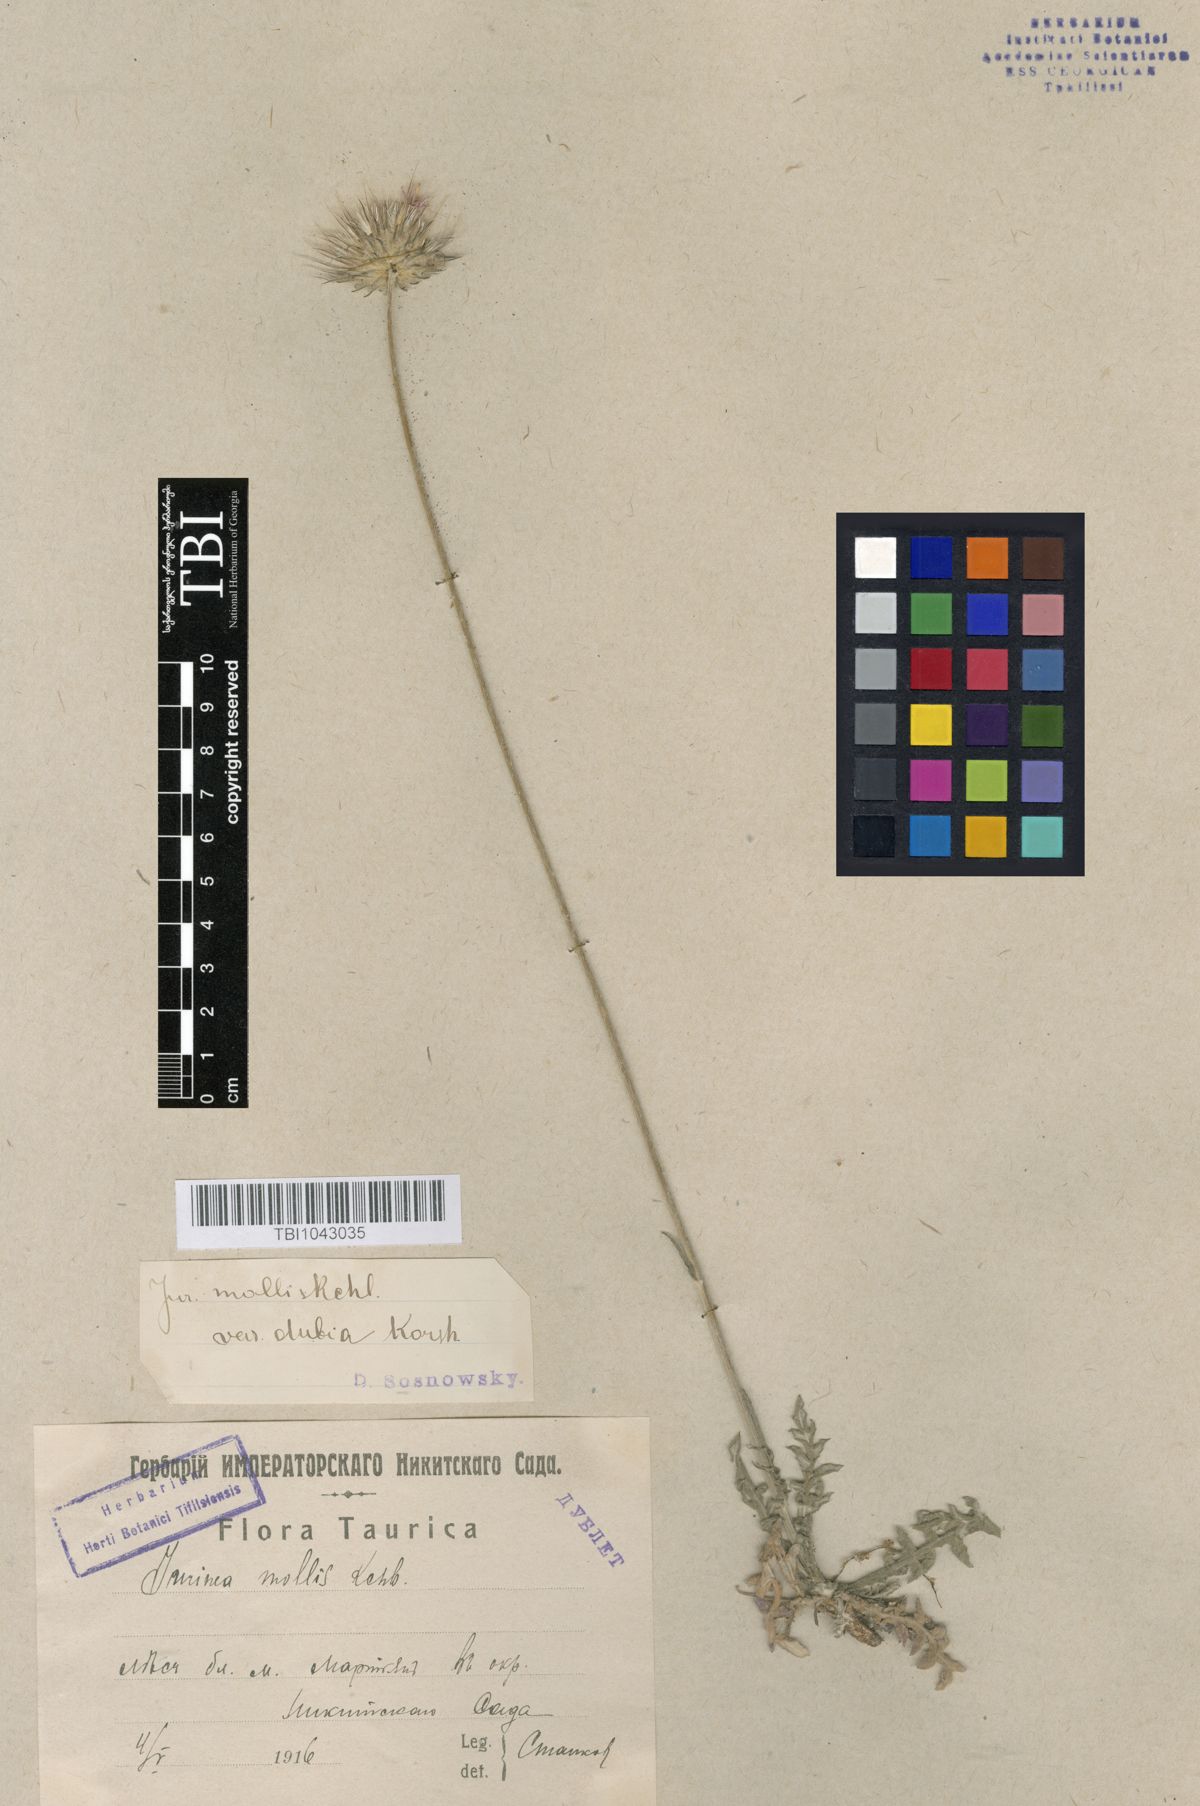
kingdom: Plantae
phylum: Tracheophyta
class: Magnoliopsida
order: Asterales
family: Asteraceae
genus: Jurinea
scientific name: Jurinea roegneri
